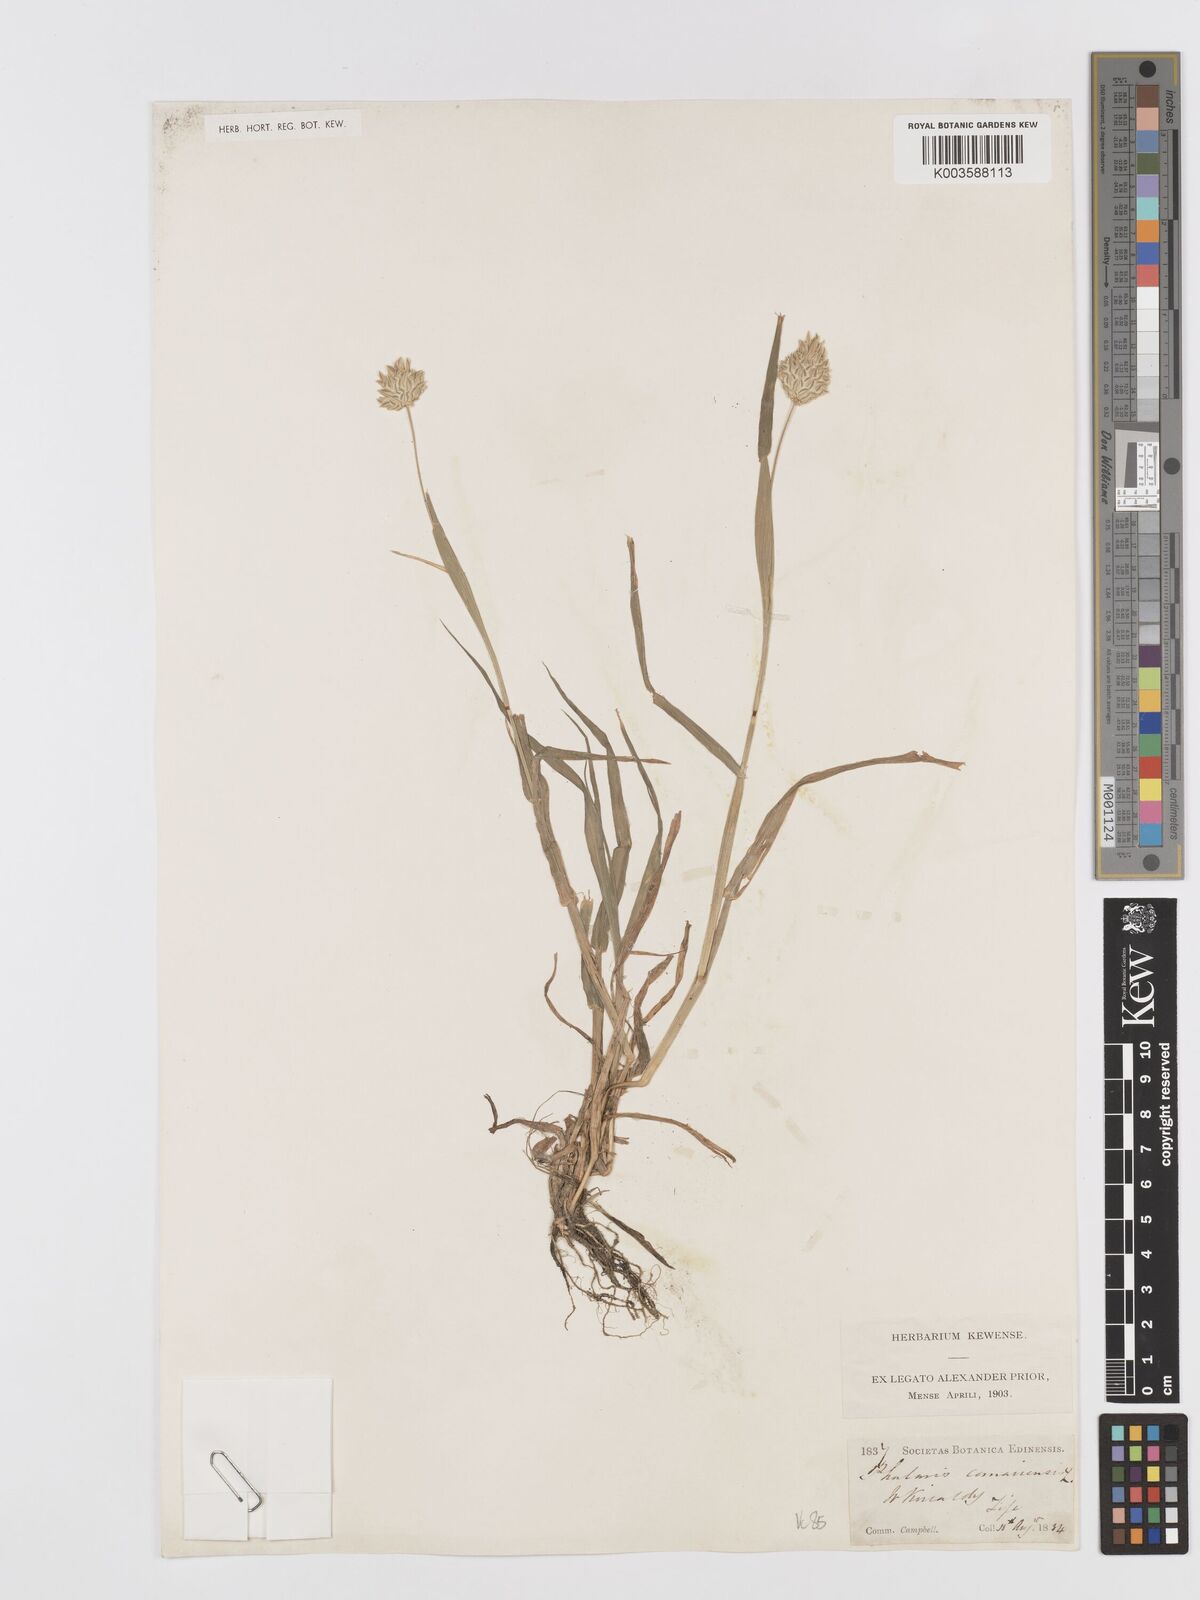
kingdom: Plantae
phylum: Tracheophyta
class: Liliopsida
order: Poales
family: Poaceae
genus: Phalaris
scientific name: Phalaris canariensis
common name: Annual canarygrass
